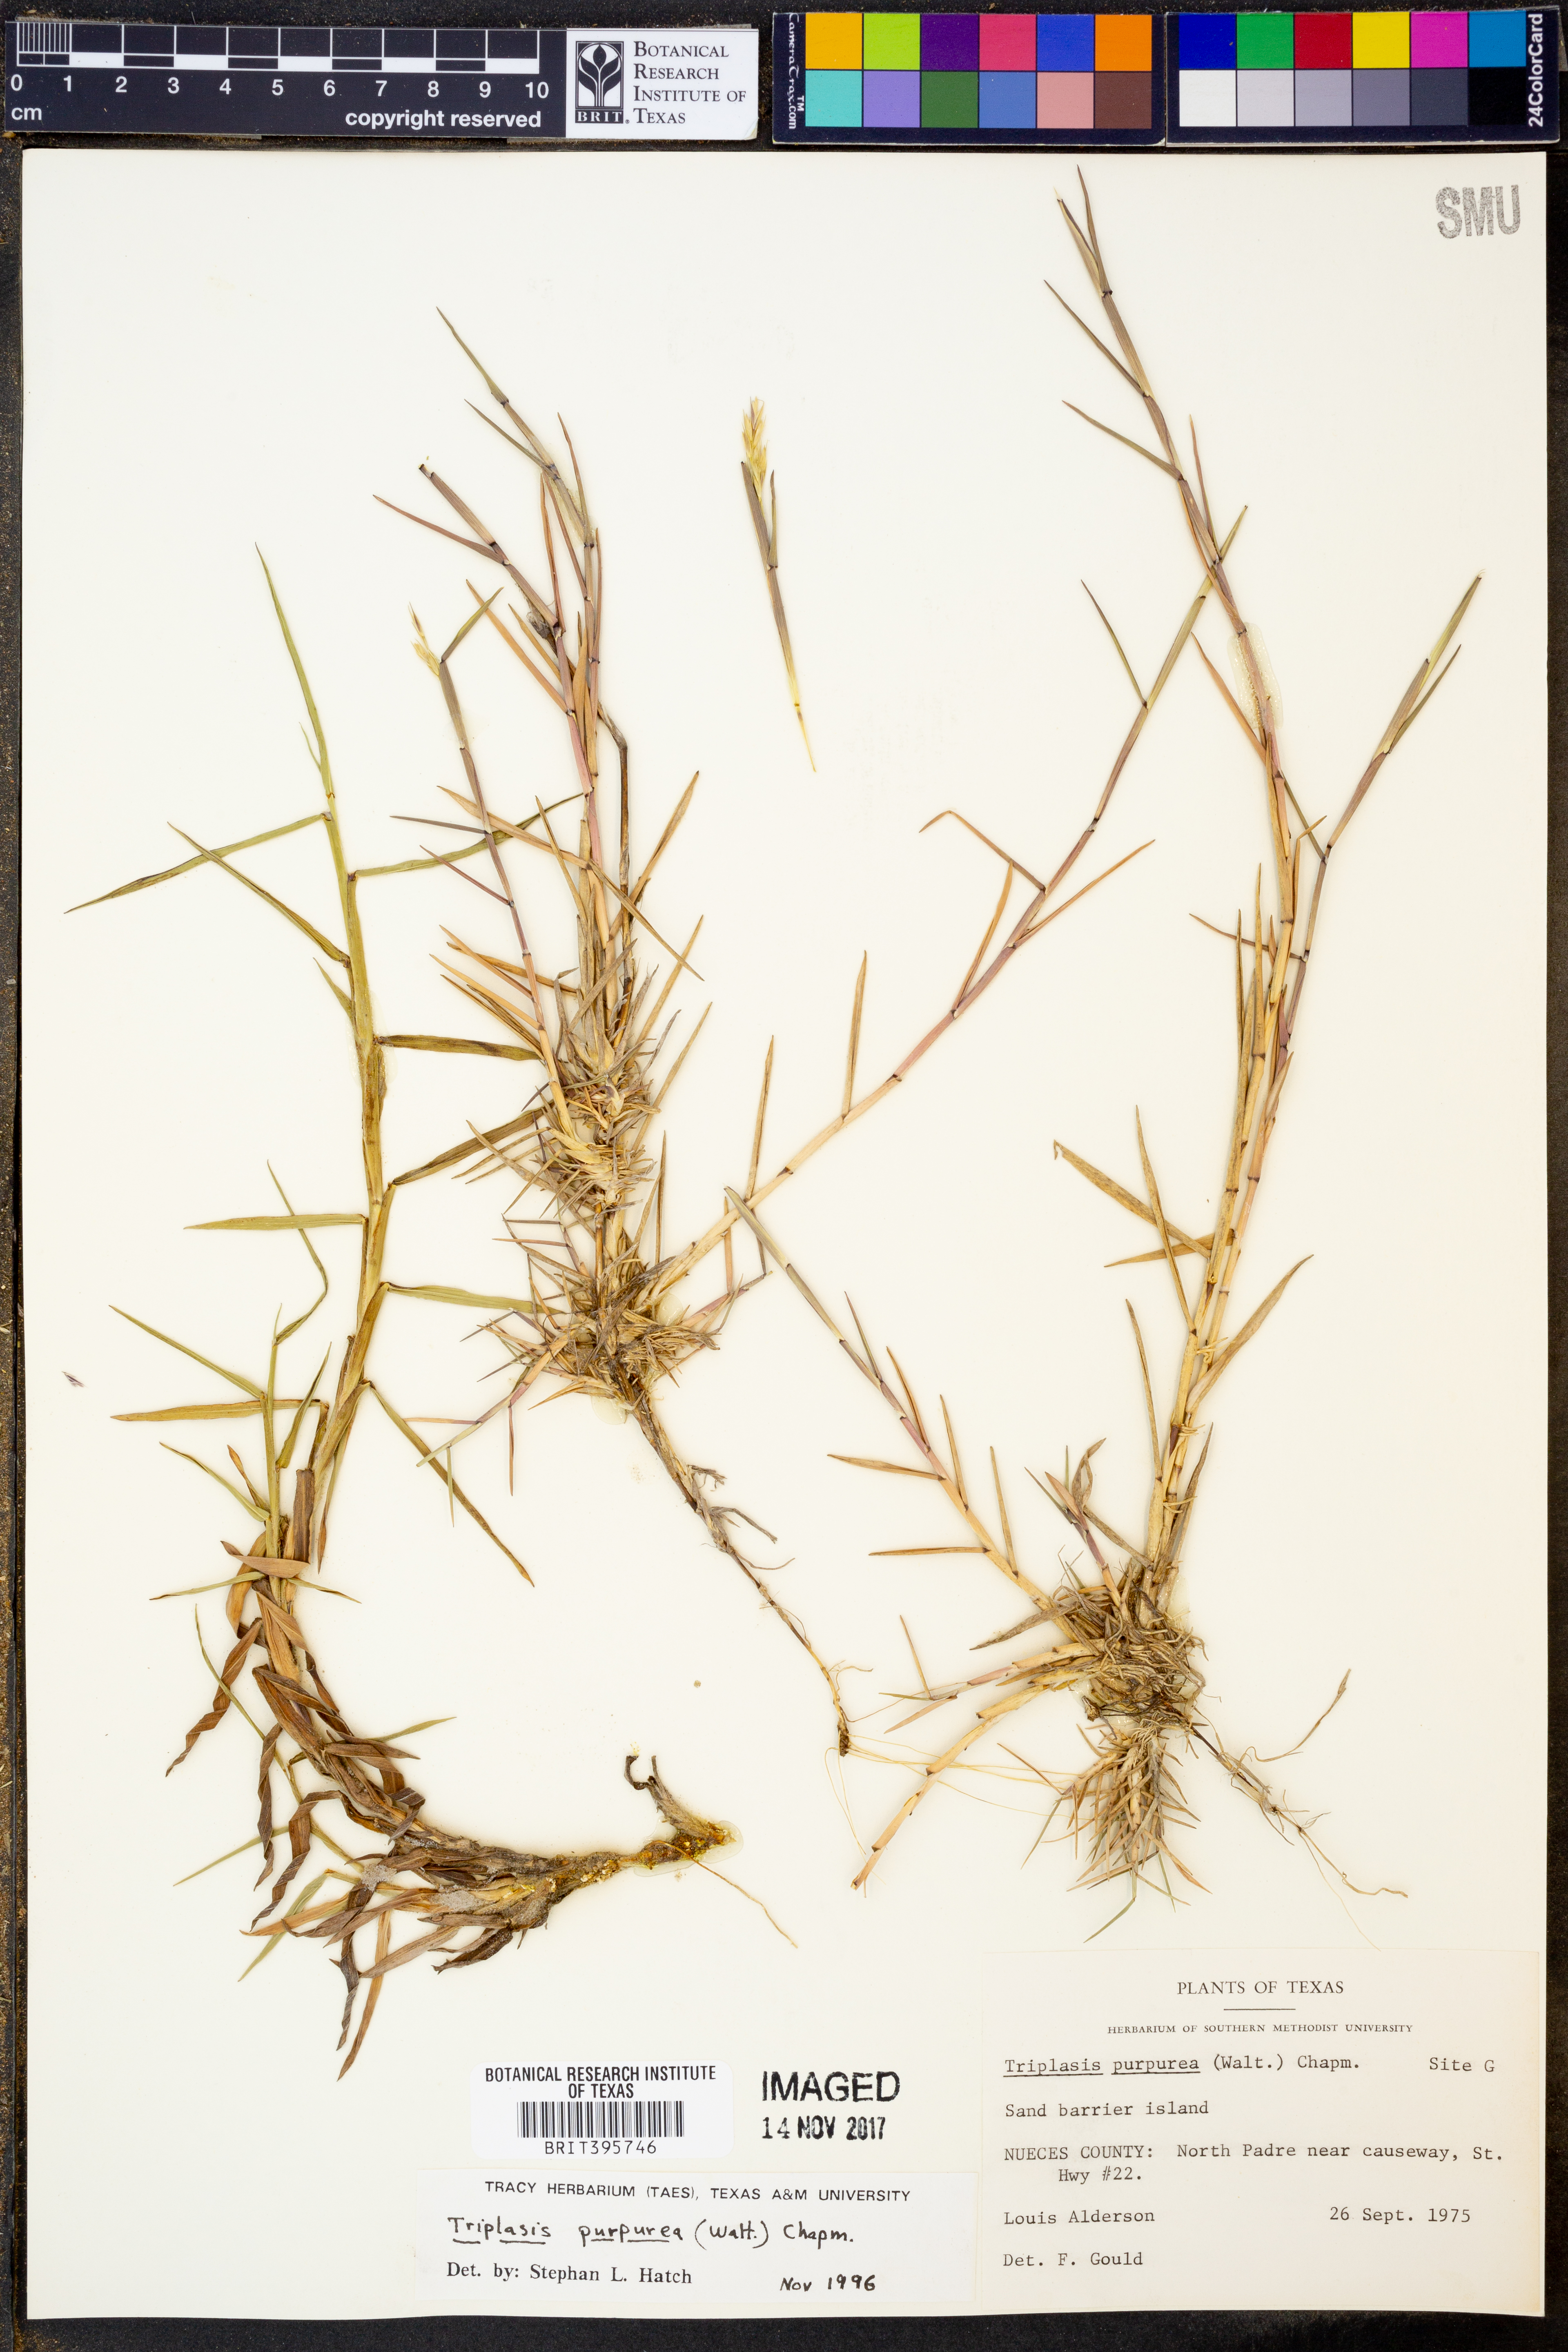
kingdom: Plantae
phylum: Tracheophyta
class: Liliopsida
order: Poales
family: Poaceae
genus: Triplasis
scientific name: Triplasis purpurea
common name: Purple sand grass
